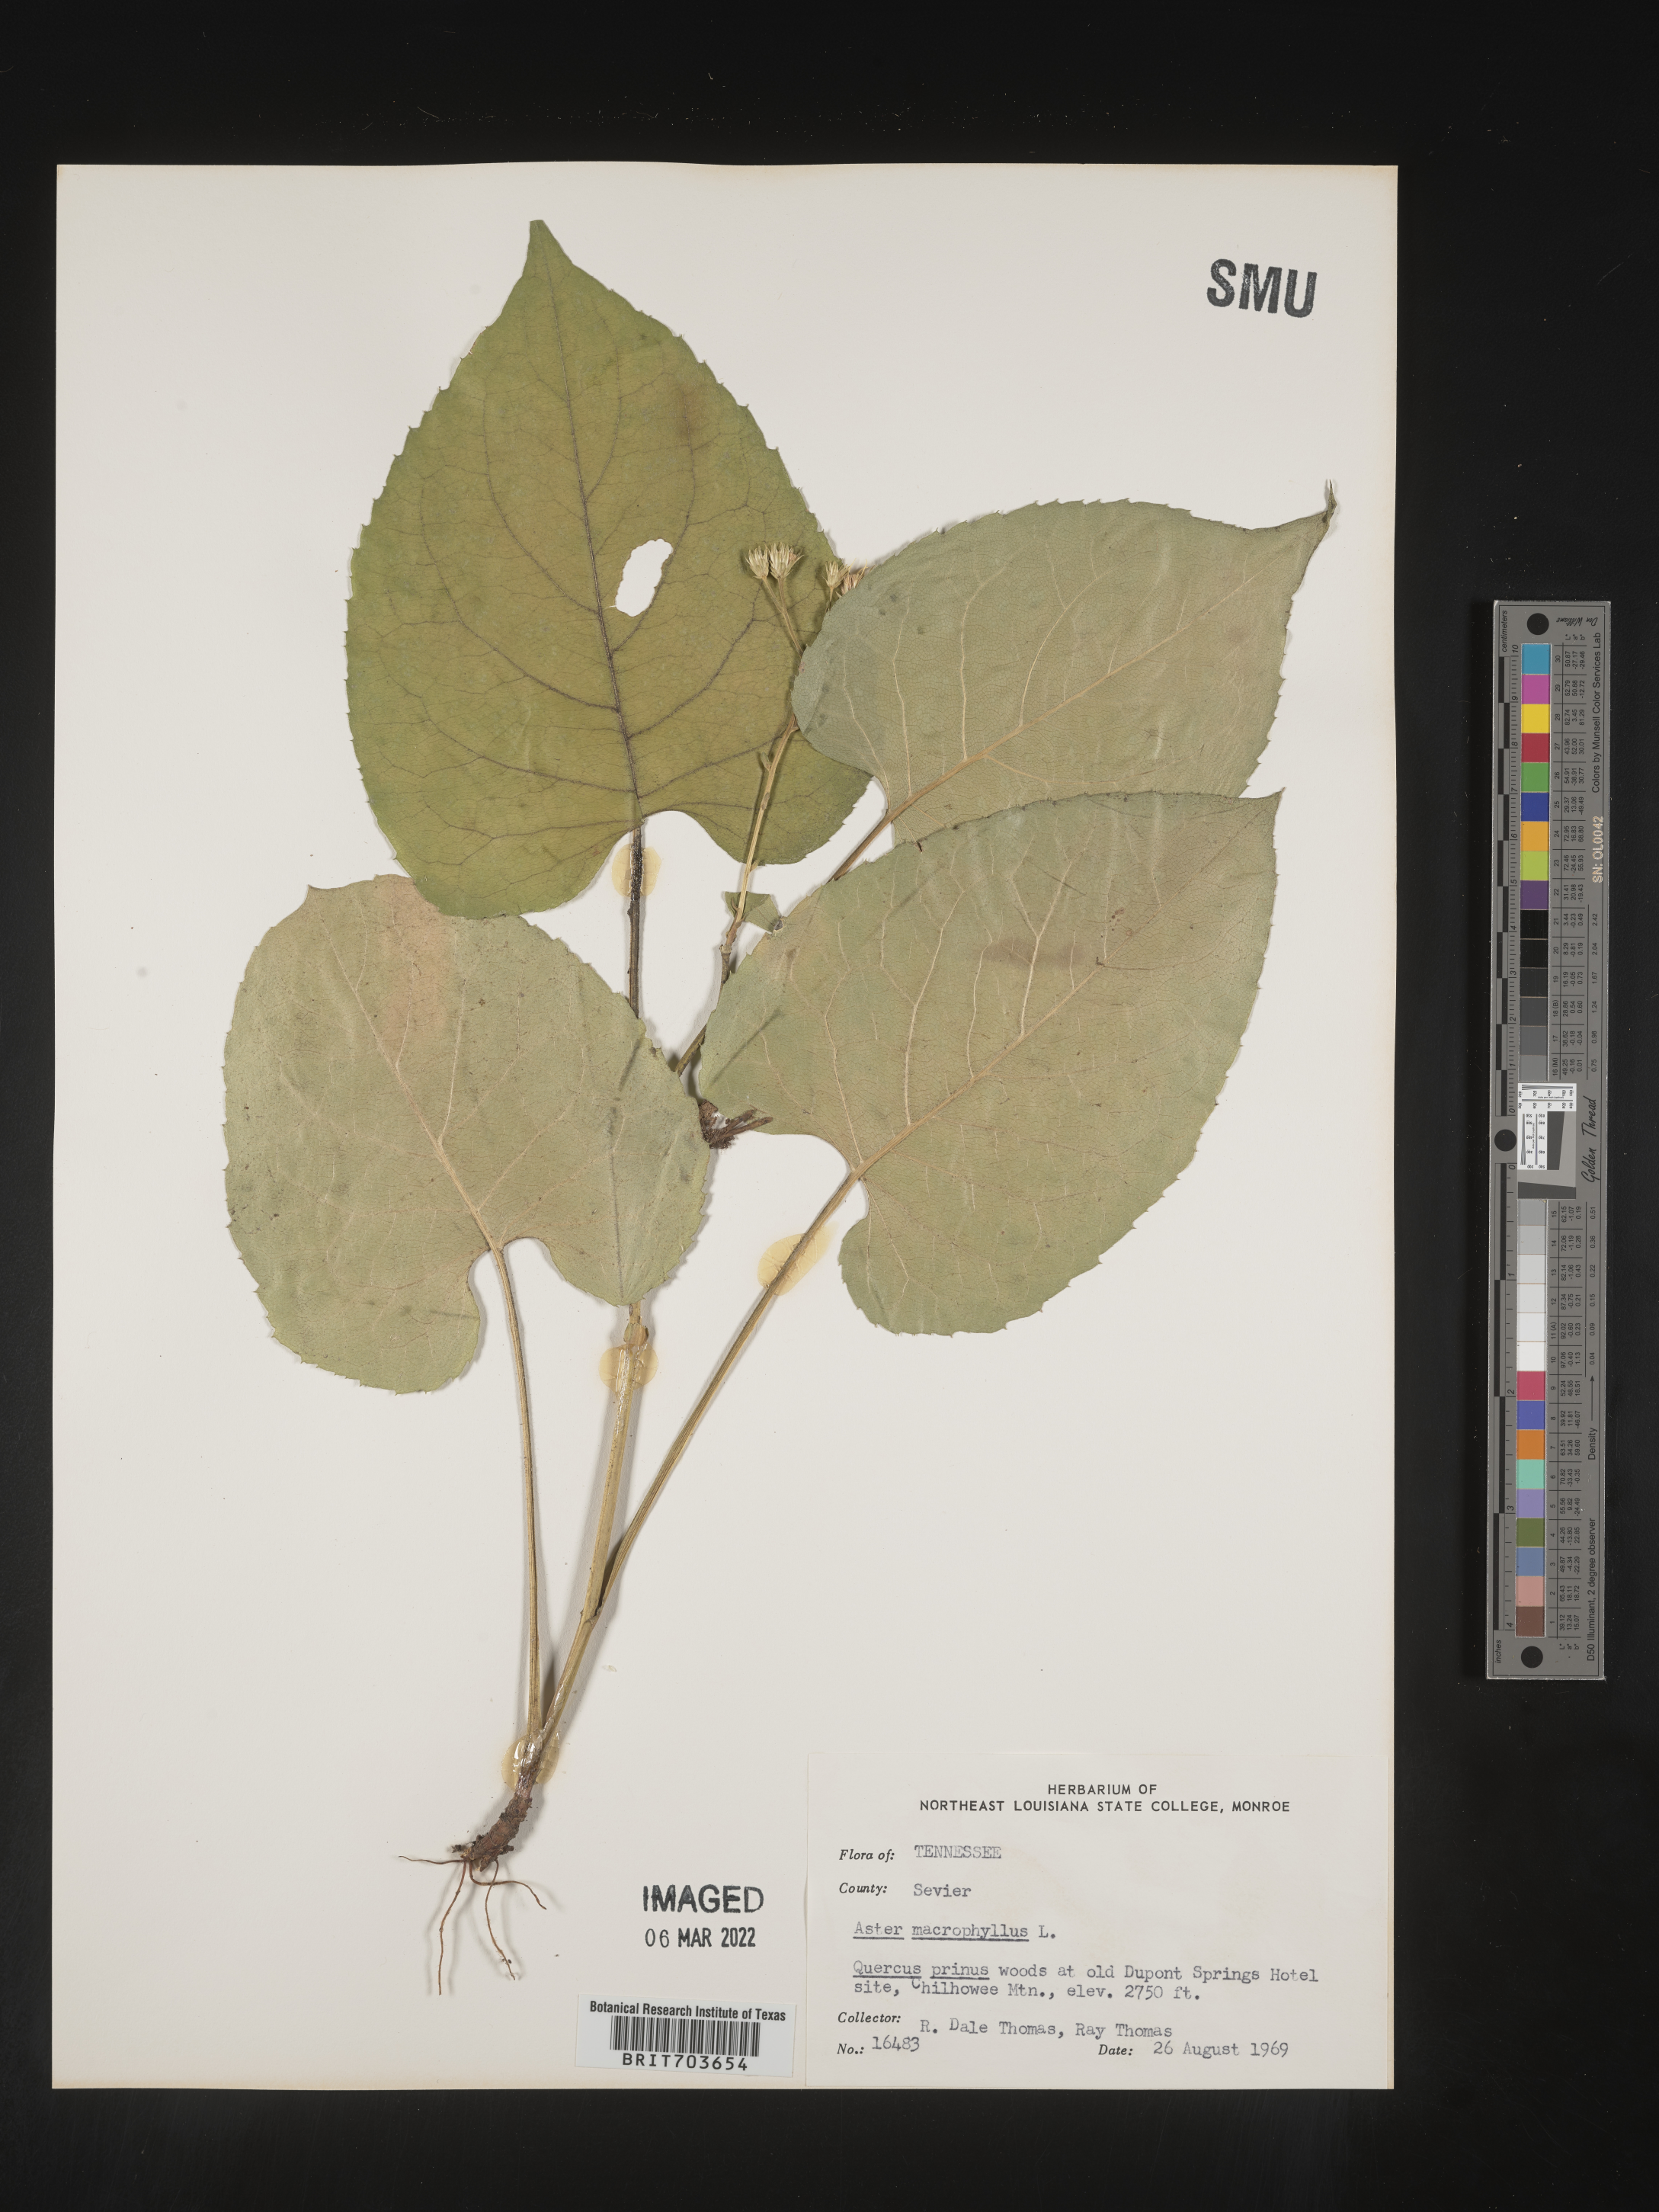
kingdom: Plantae
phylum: Tracheophyta
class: Magnoliopsida
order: Asterales
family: Asteraceae
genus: Eurybia
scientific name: Eurybia macrophylla
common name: Big-leaved aster
